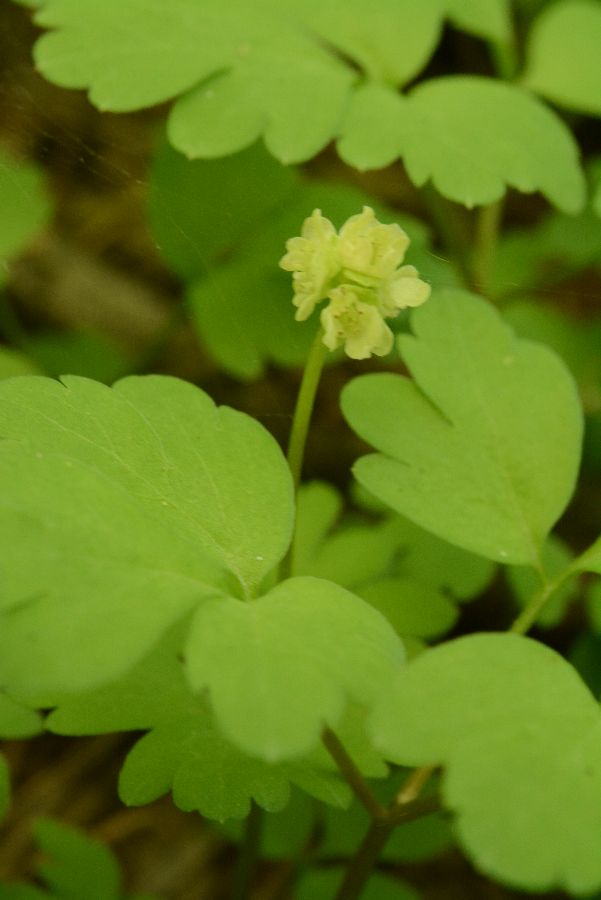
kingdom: Plantae
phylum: Tracheophyta
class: Magnoliopsida
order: Dipsacales
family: Viburnaceae
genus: Adoxa
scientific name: Adoxa moschatellina
